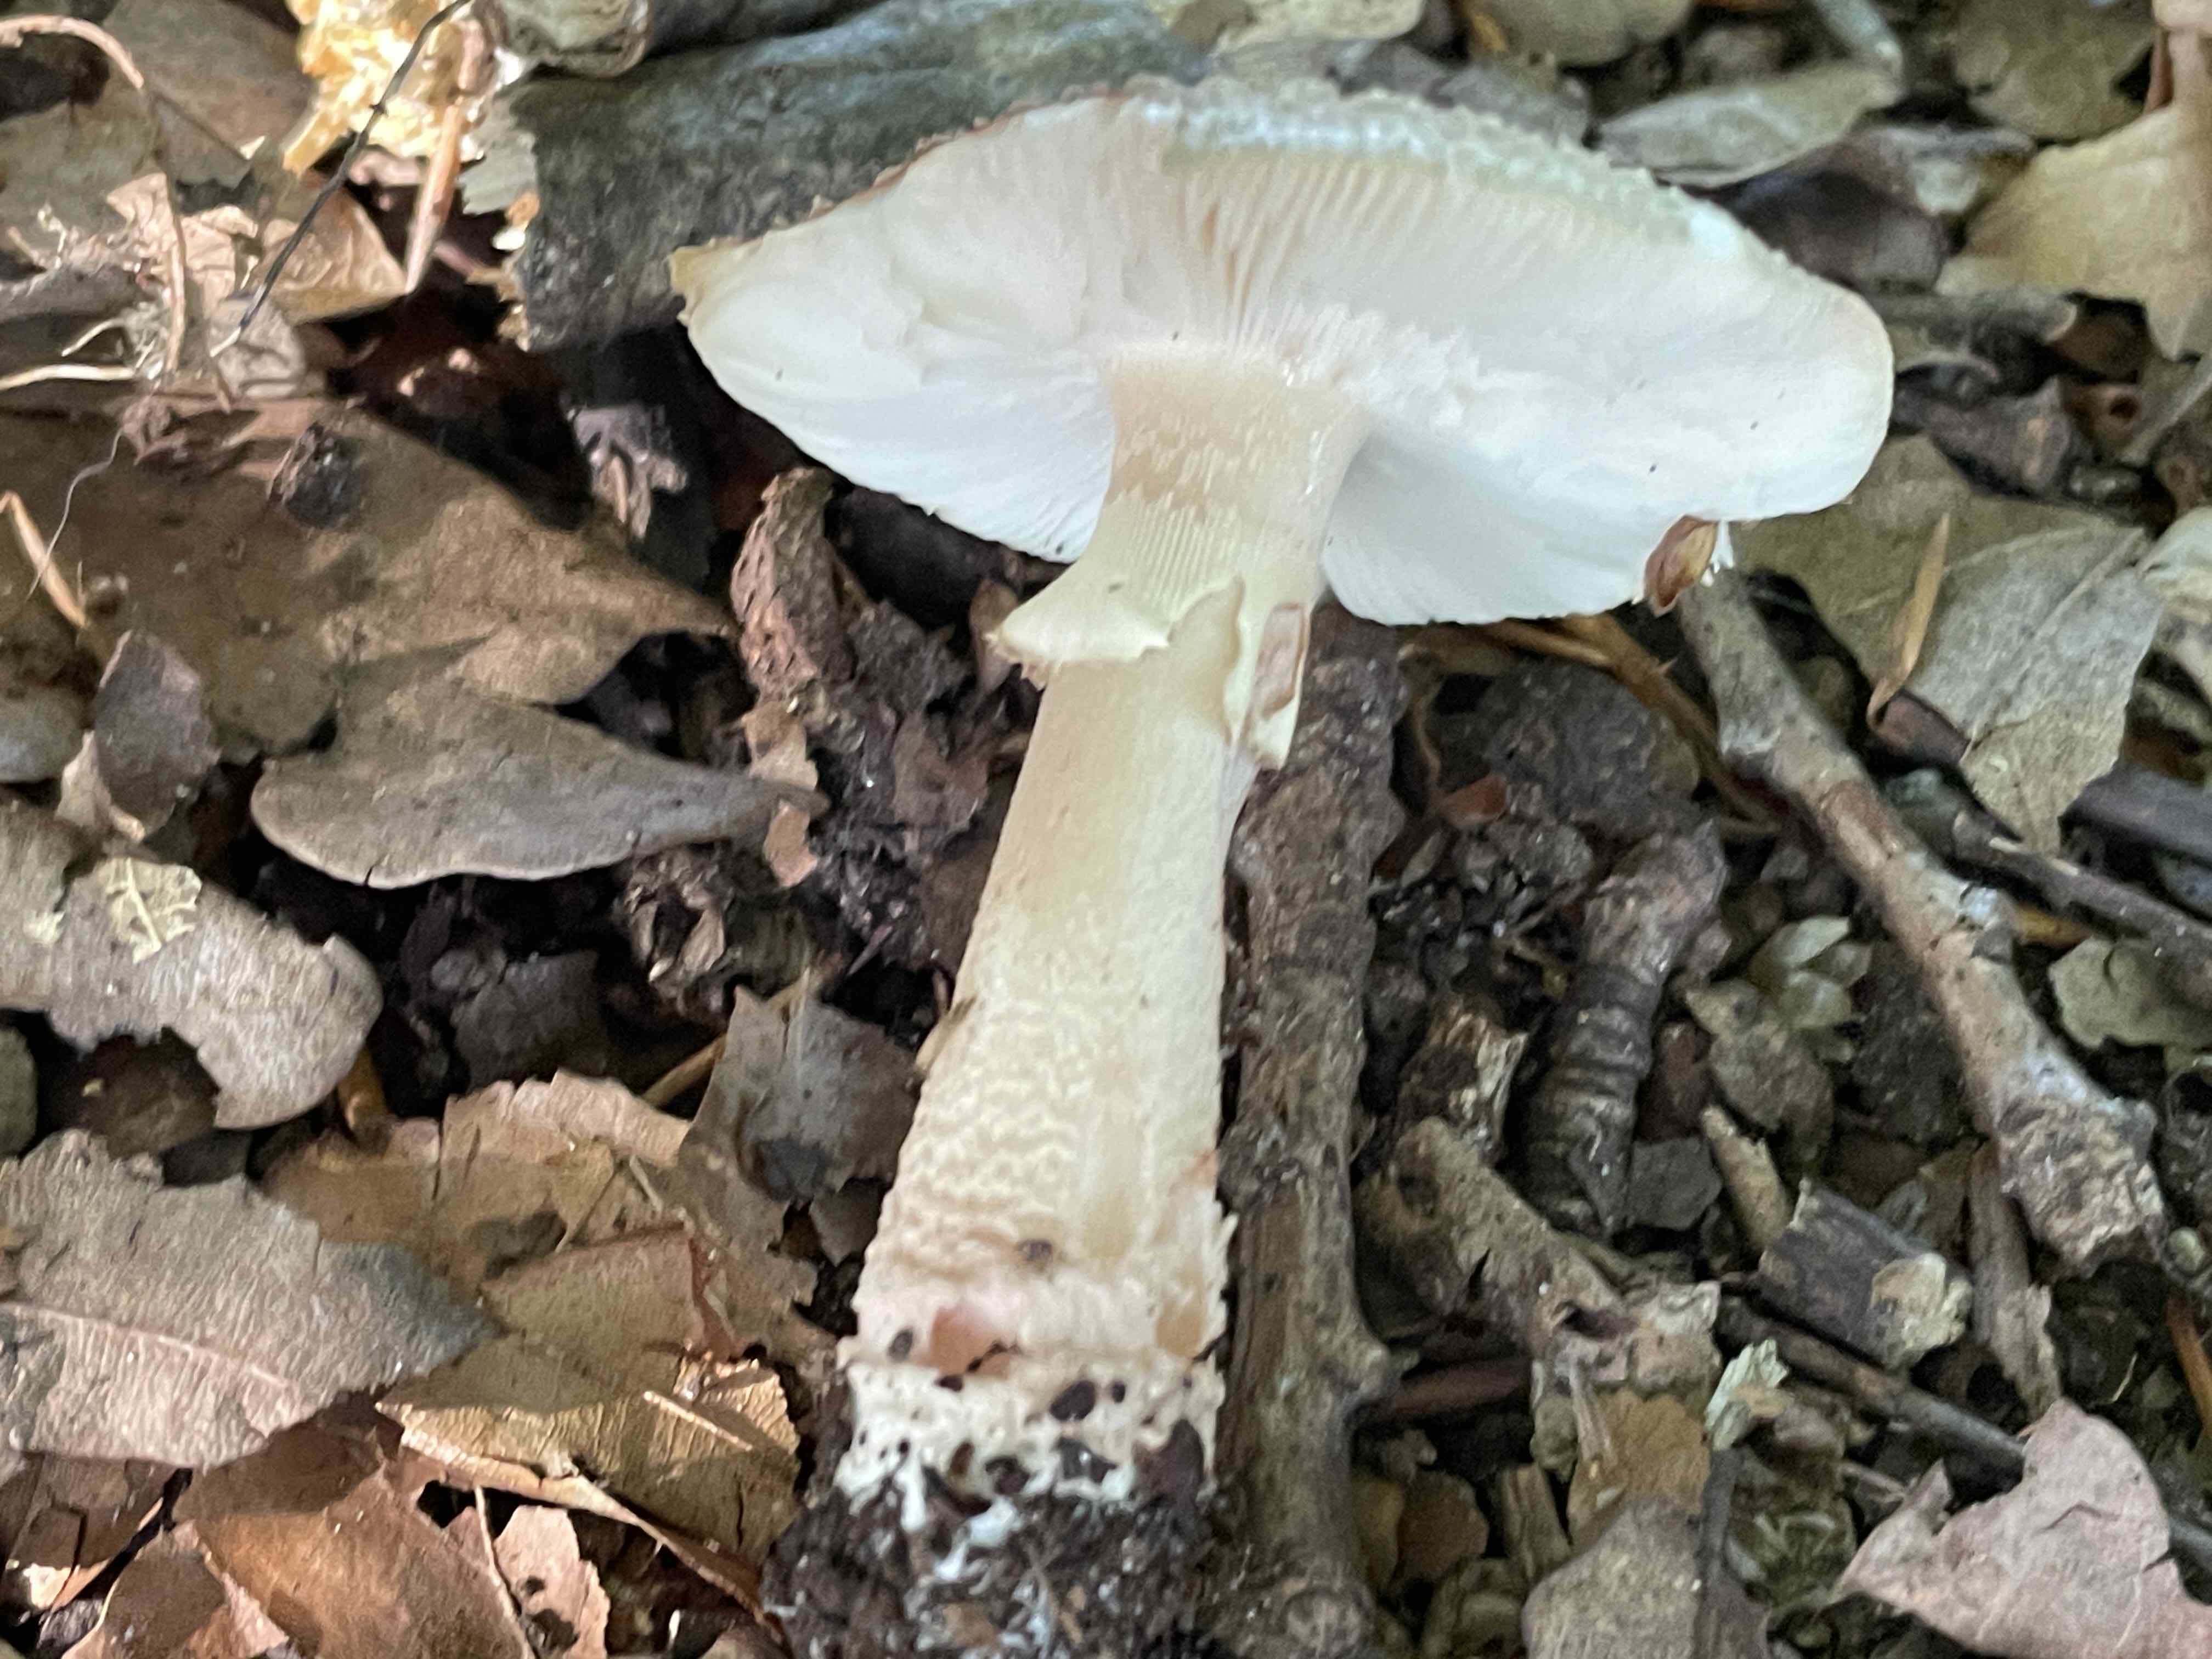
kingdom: Fungi
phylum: Basidiomycota
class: Agaricomycetes
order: Agaricales
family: Amanitaceae
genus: Amanita
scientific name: Amanita rubescens
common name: rødmende fluesvamp
